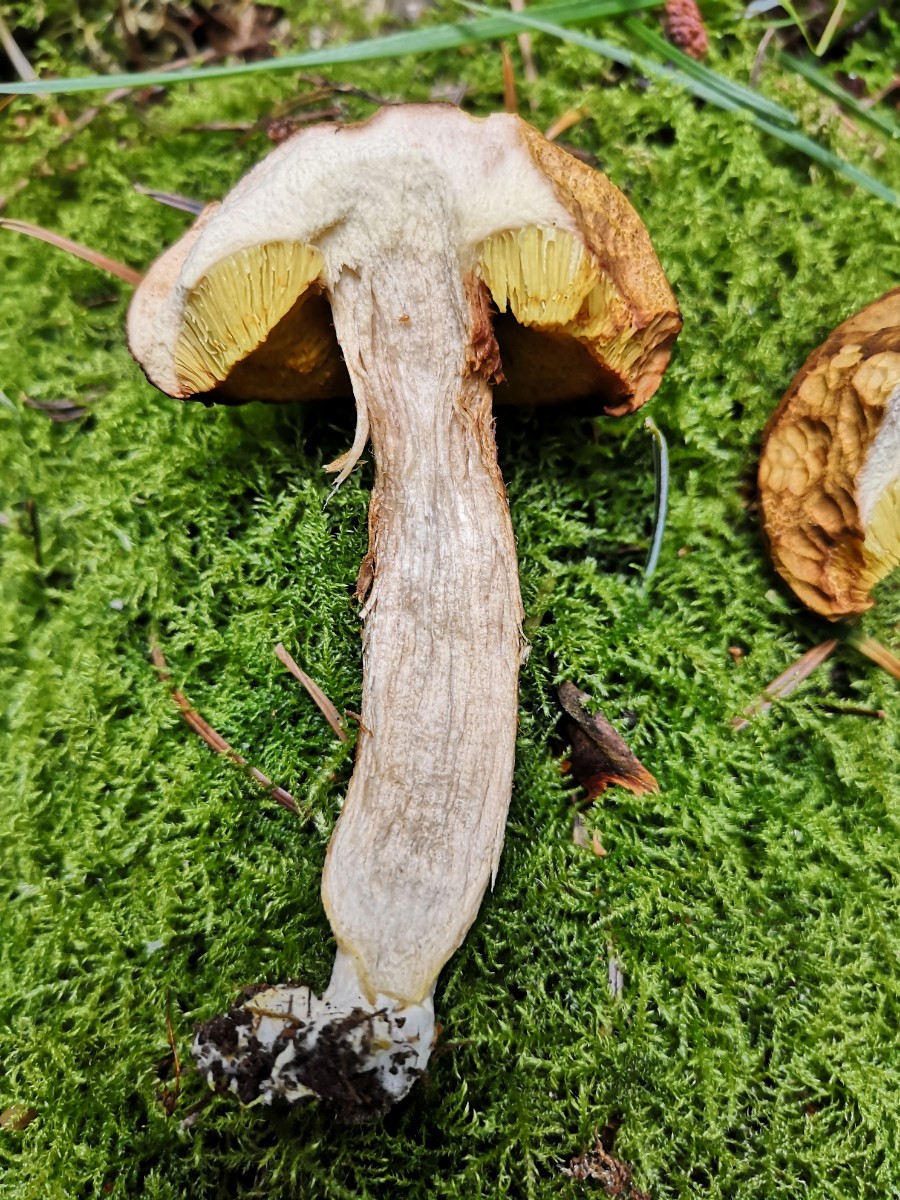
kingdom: Fungi
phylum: Basidiomycota
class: Agaricomycetes
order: Boletales
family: Boletaceae
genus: Xerocomus
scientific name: Xerocomus ferrugineus
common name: vaskeskinds-rørhat
